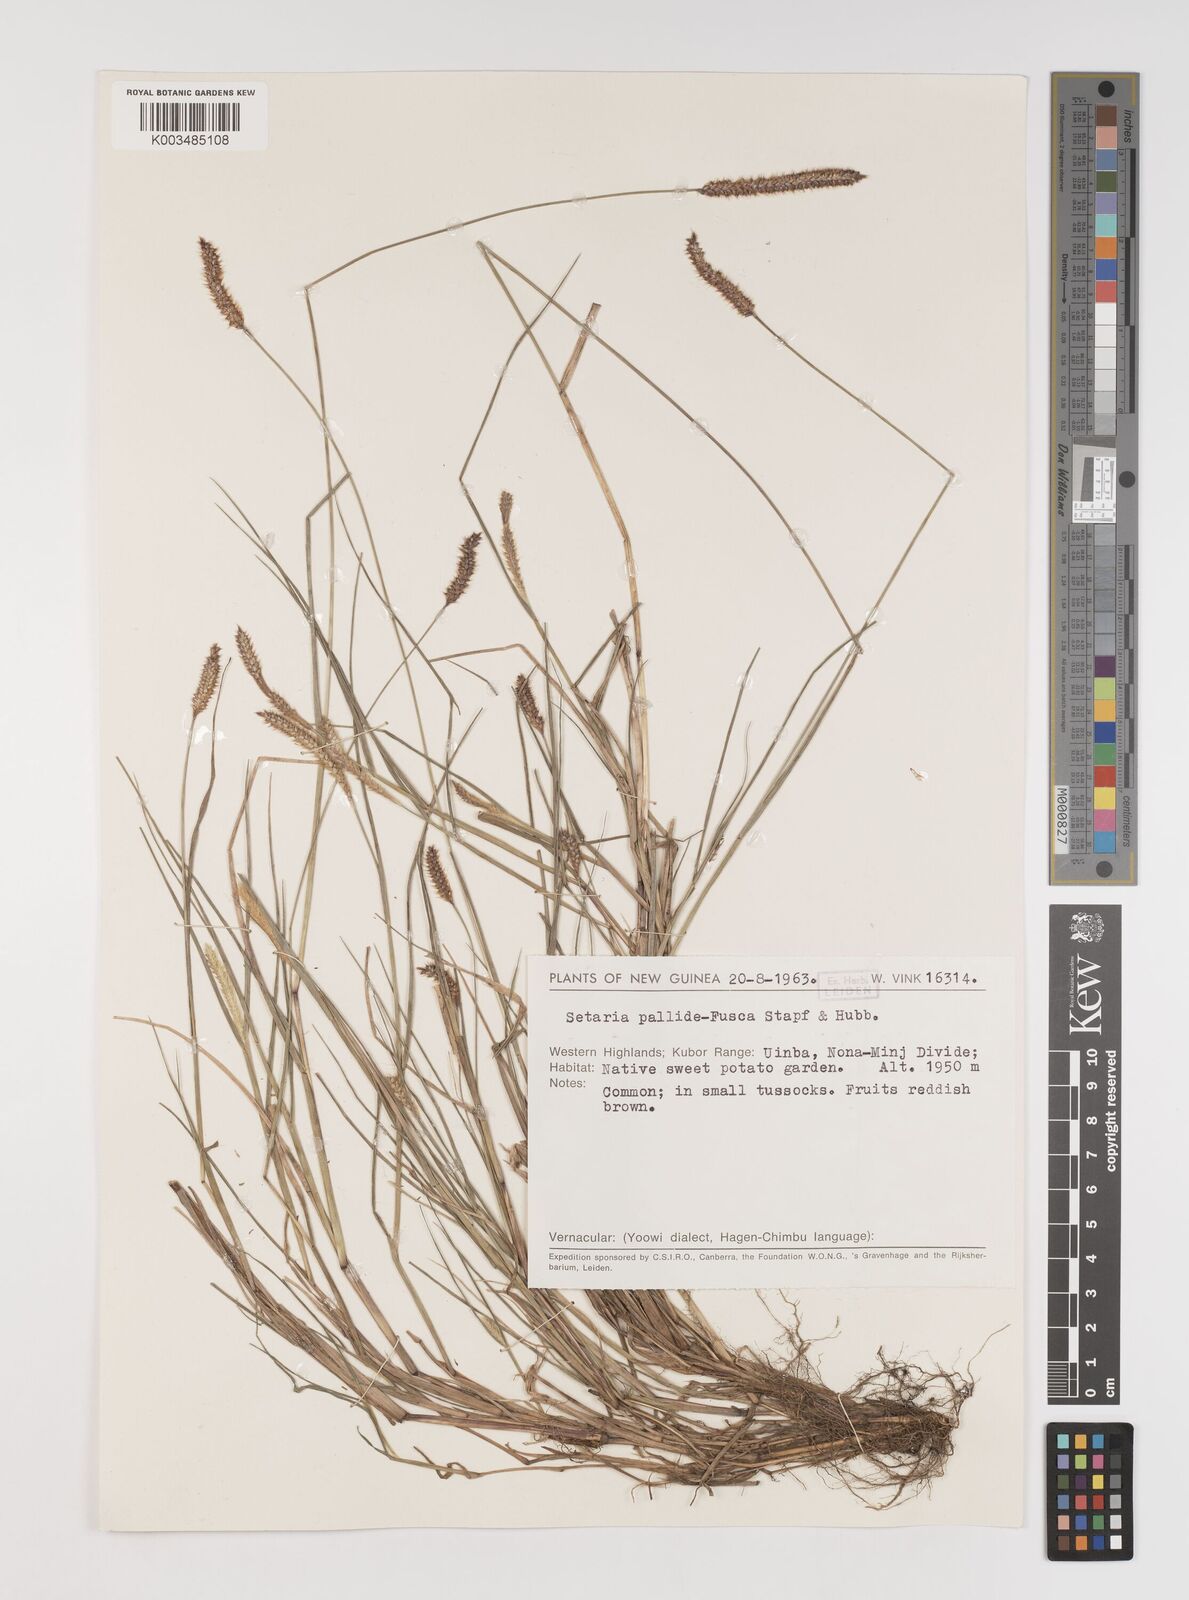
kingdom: Plantae
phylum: Tracheophyta
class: Liliopsida
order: Poales
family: Poaceae
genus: Setaria
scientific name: Setaria parviflora
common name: Knotroot bristle-grass
